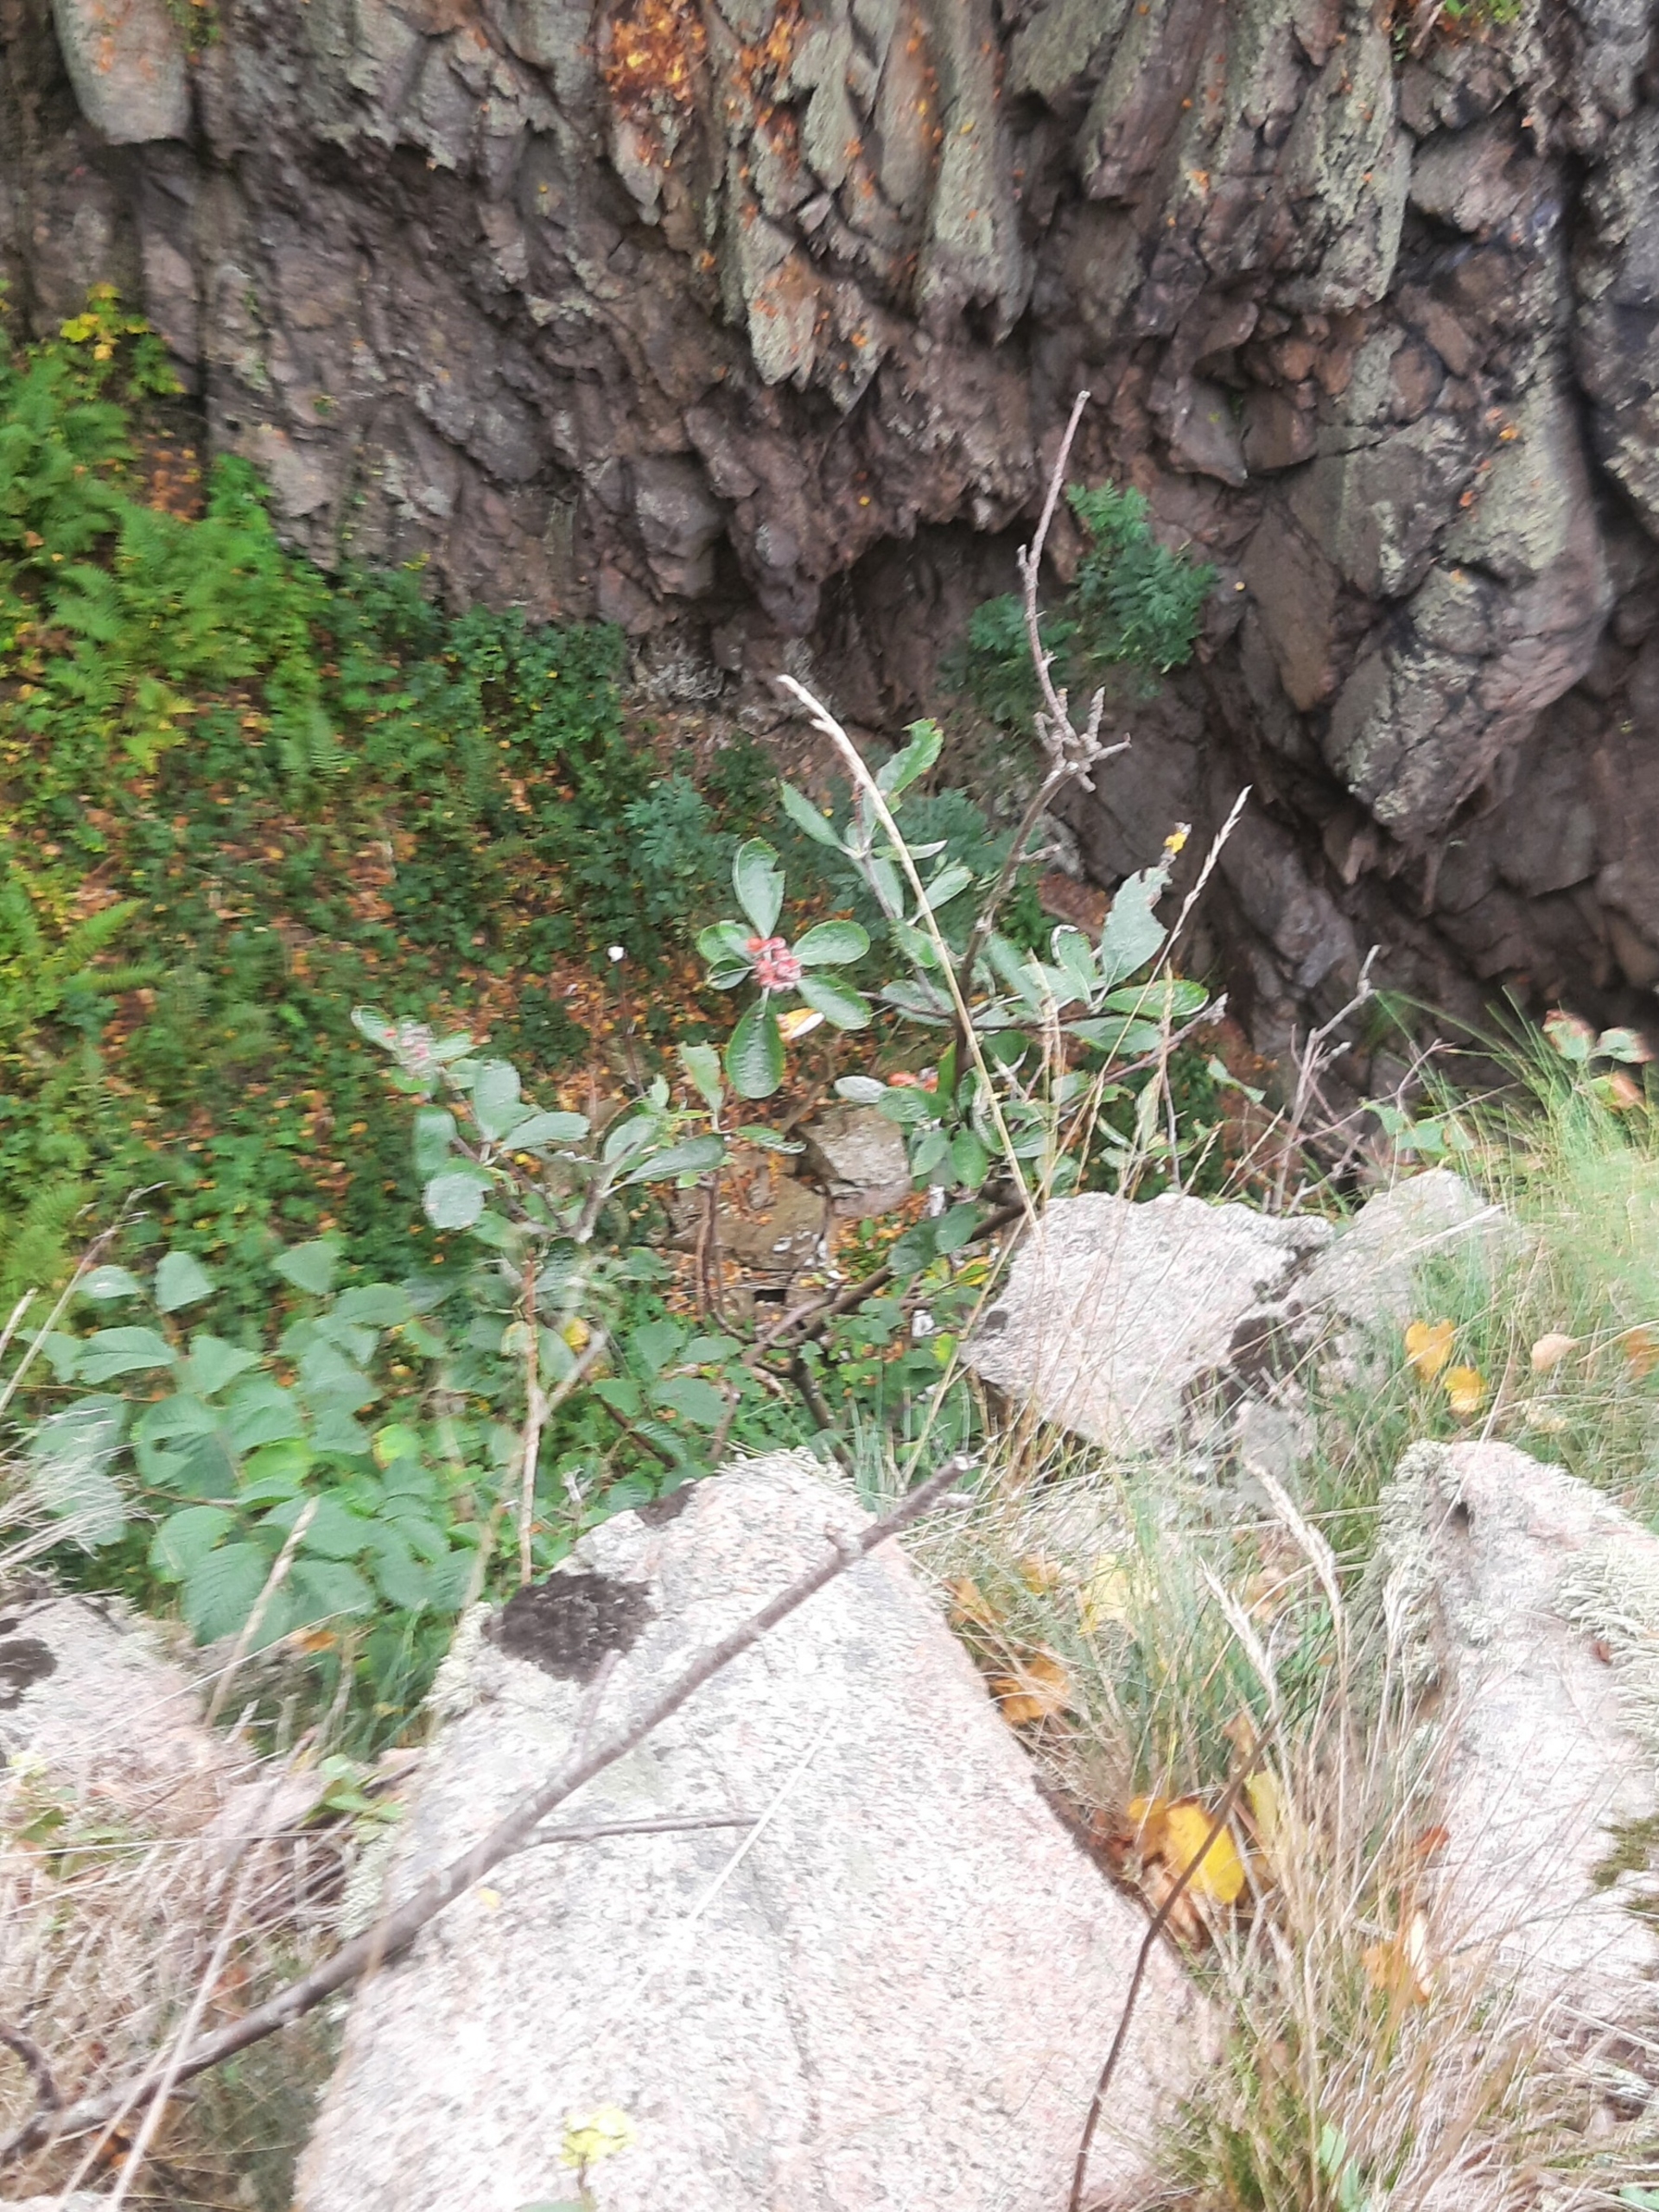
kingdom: Plantae
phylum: Tracheophyta
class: Magnoliopsida
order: Rosales
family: Rosaceae
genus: Aria
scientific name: Aria rupicola
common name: Klippe-røn
